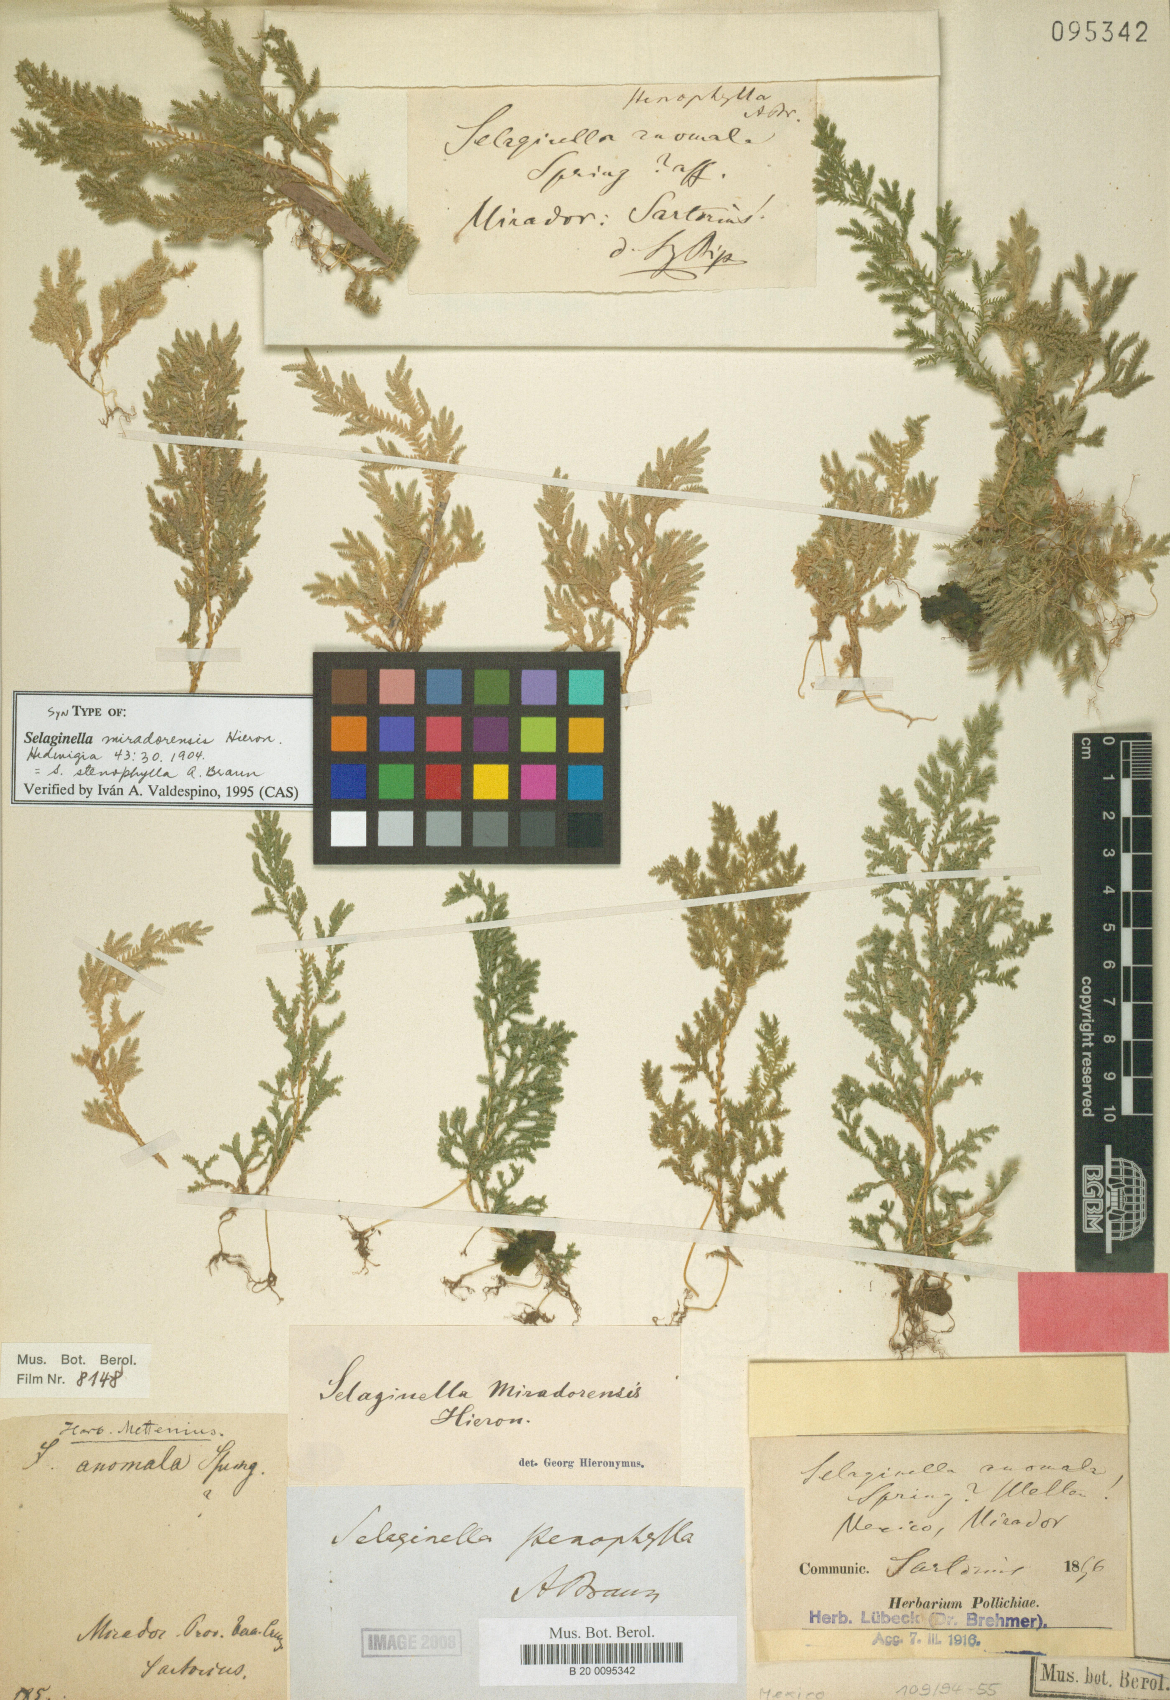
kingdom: Plantae
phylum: Tracheophyta
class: Lycopodiopsida
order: Selaginellales
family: Selaginellaceae
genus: Selaginella
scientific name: Selaginella stenophylla
